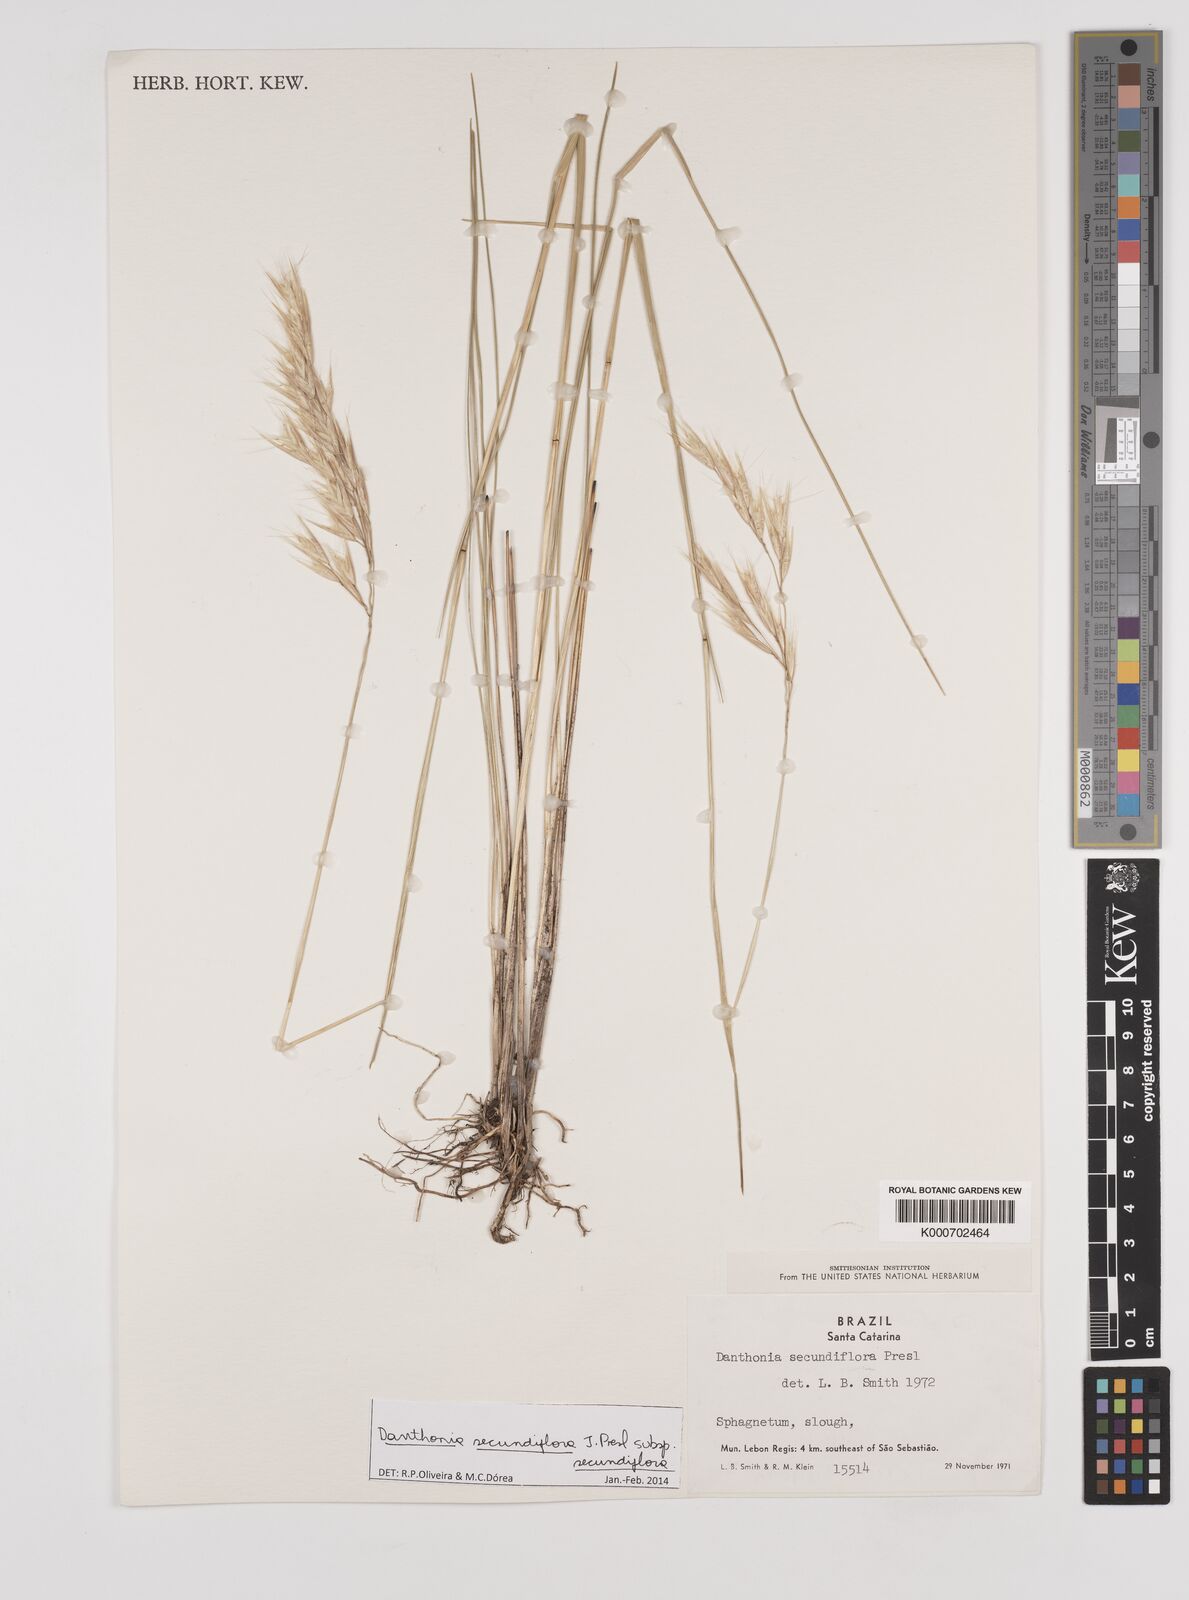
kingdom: Plantae
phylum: Tracheophyta
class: Liliopsida
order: Poales
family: Poaceae
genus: Danthonia
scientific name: Danthonia secundiflora
